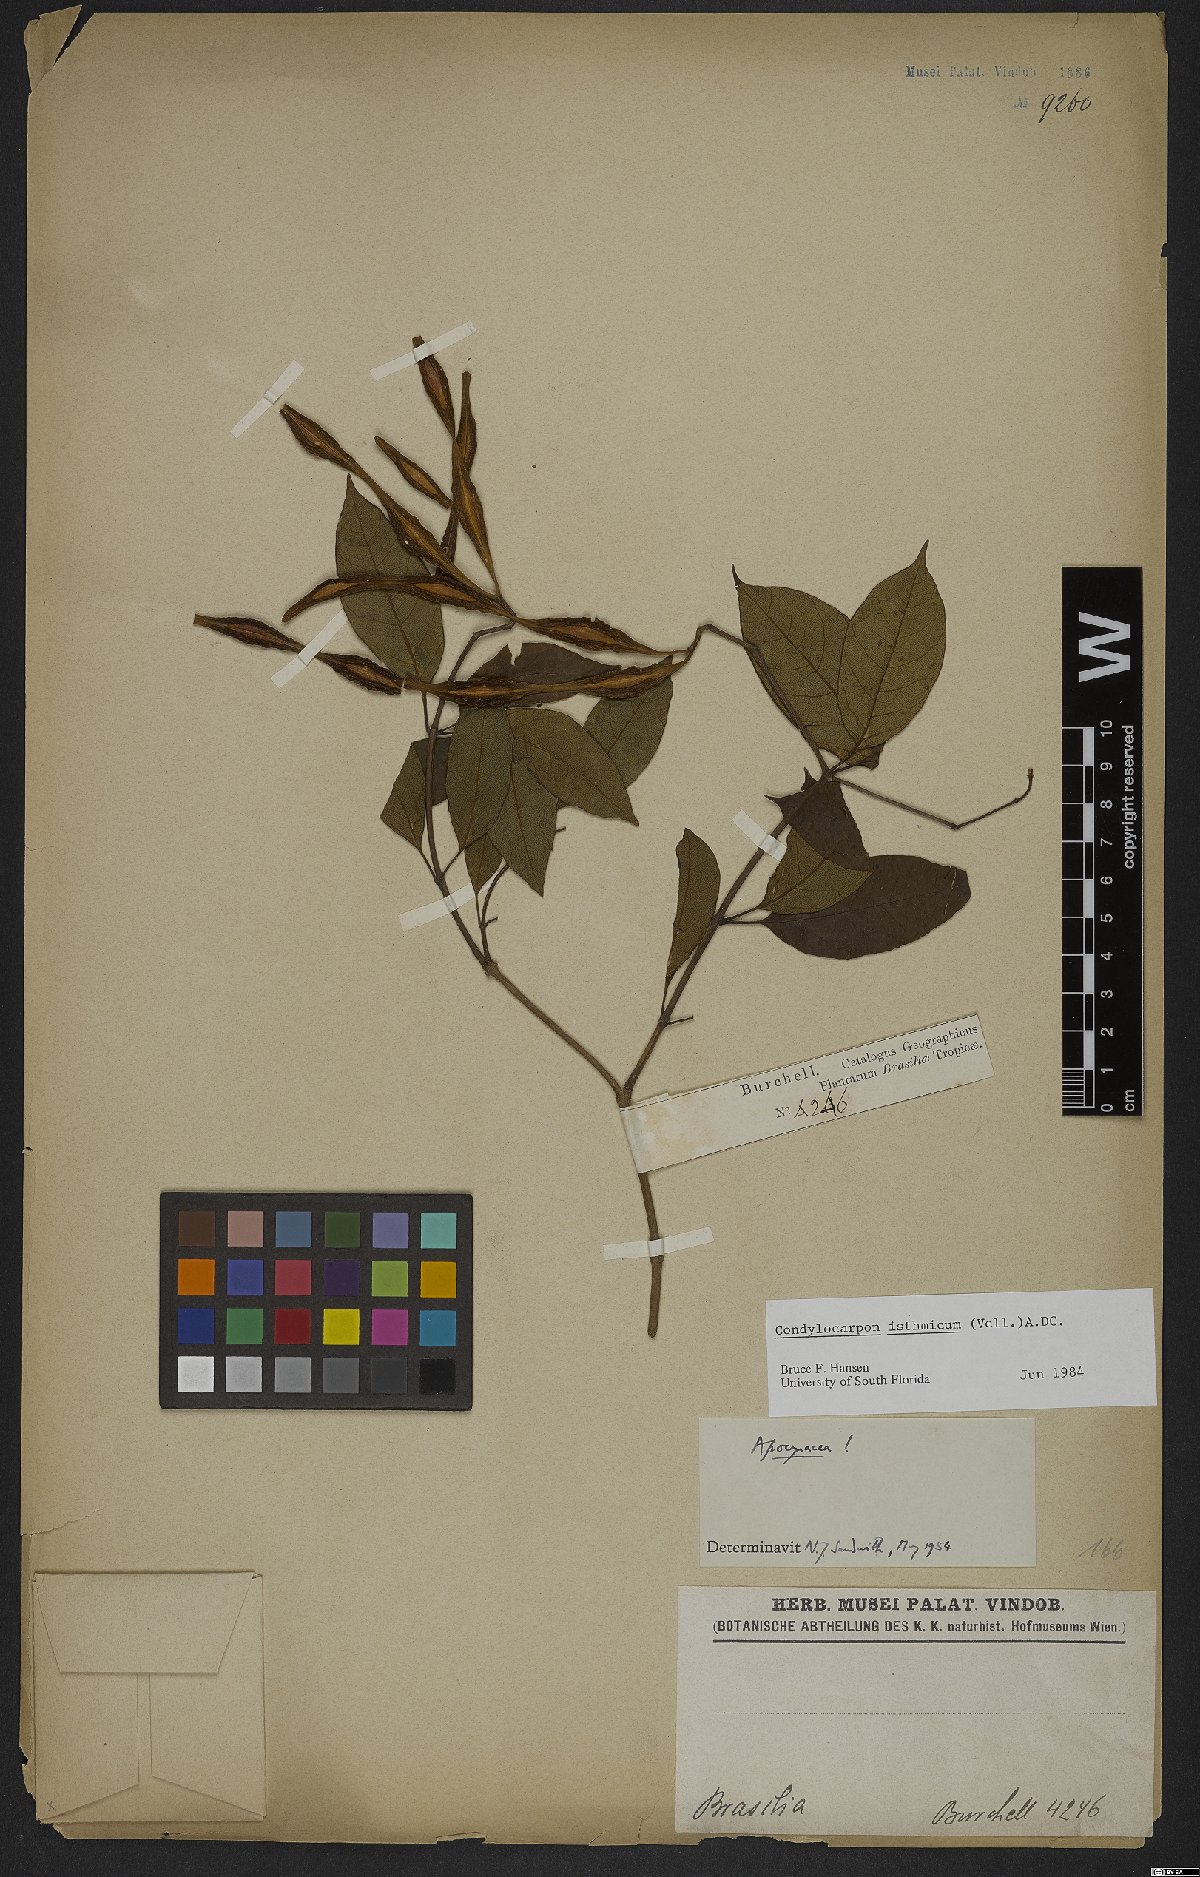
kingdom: Plantae
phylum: Tracheophyta
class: Magnoliopsida
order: Gentianales
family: Apocynaceae
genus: Condylocarpon
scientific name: Condylocarpon isthmicum
